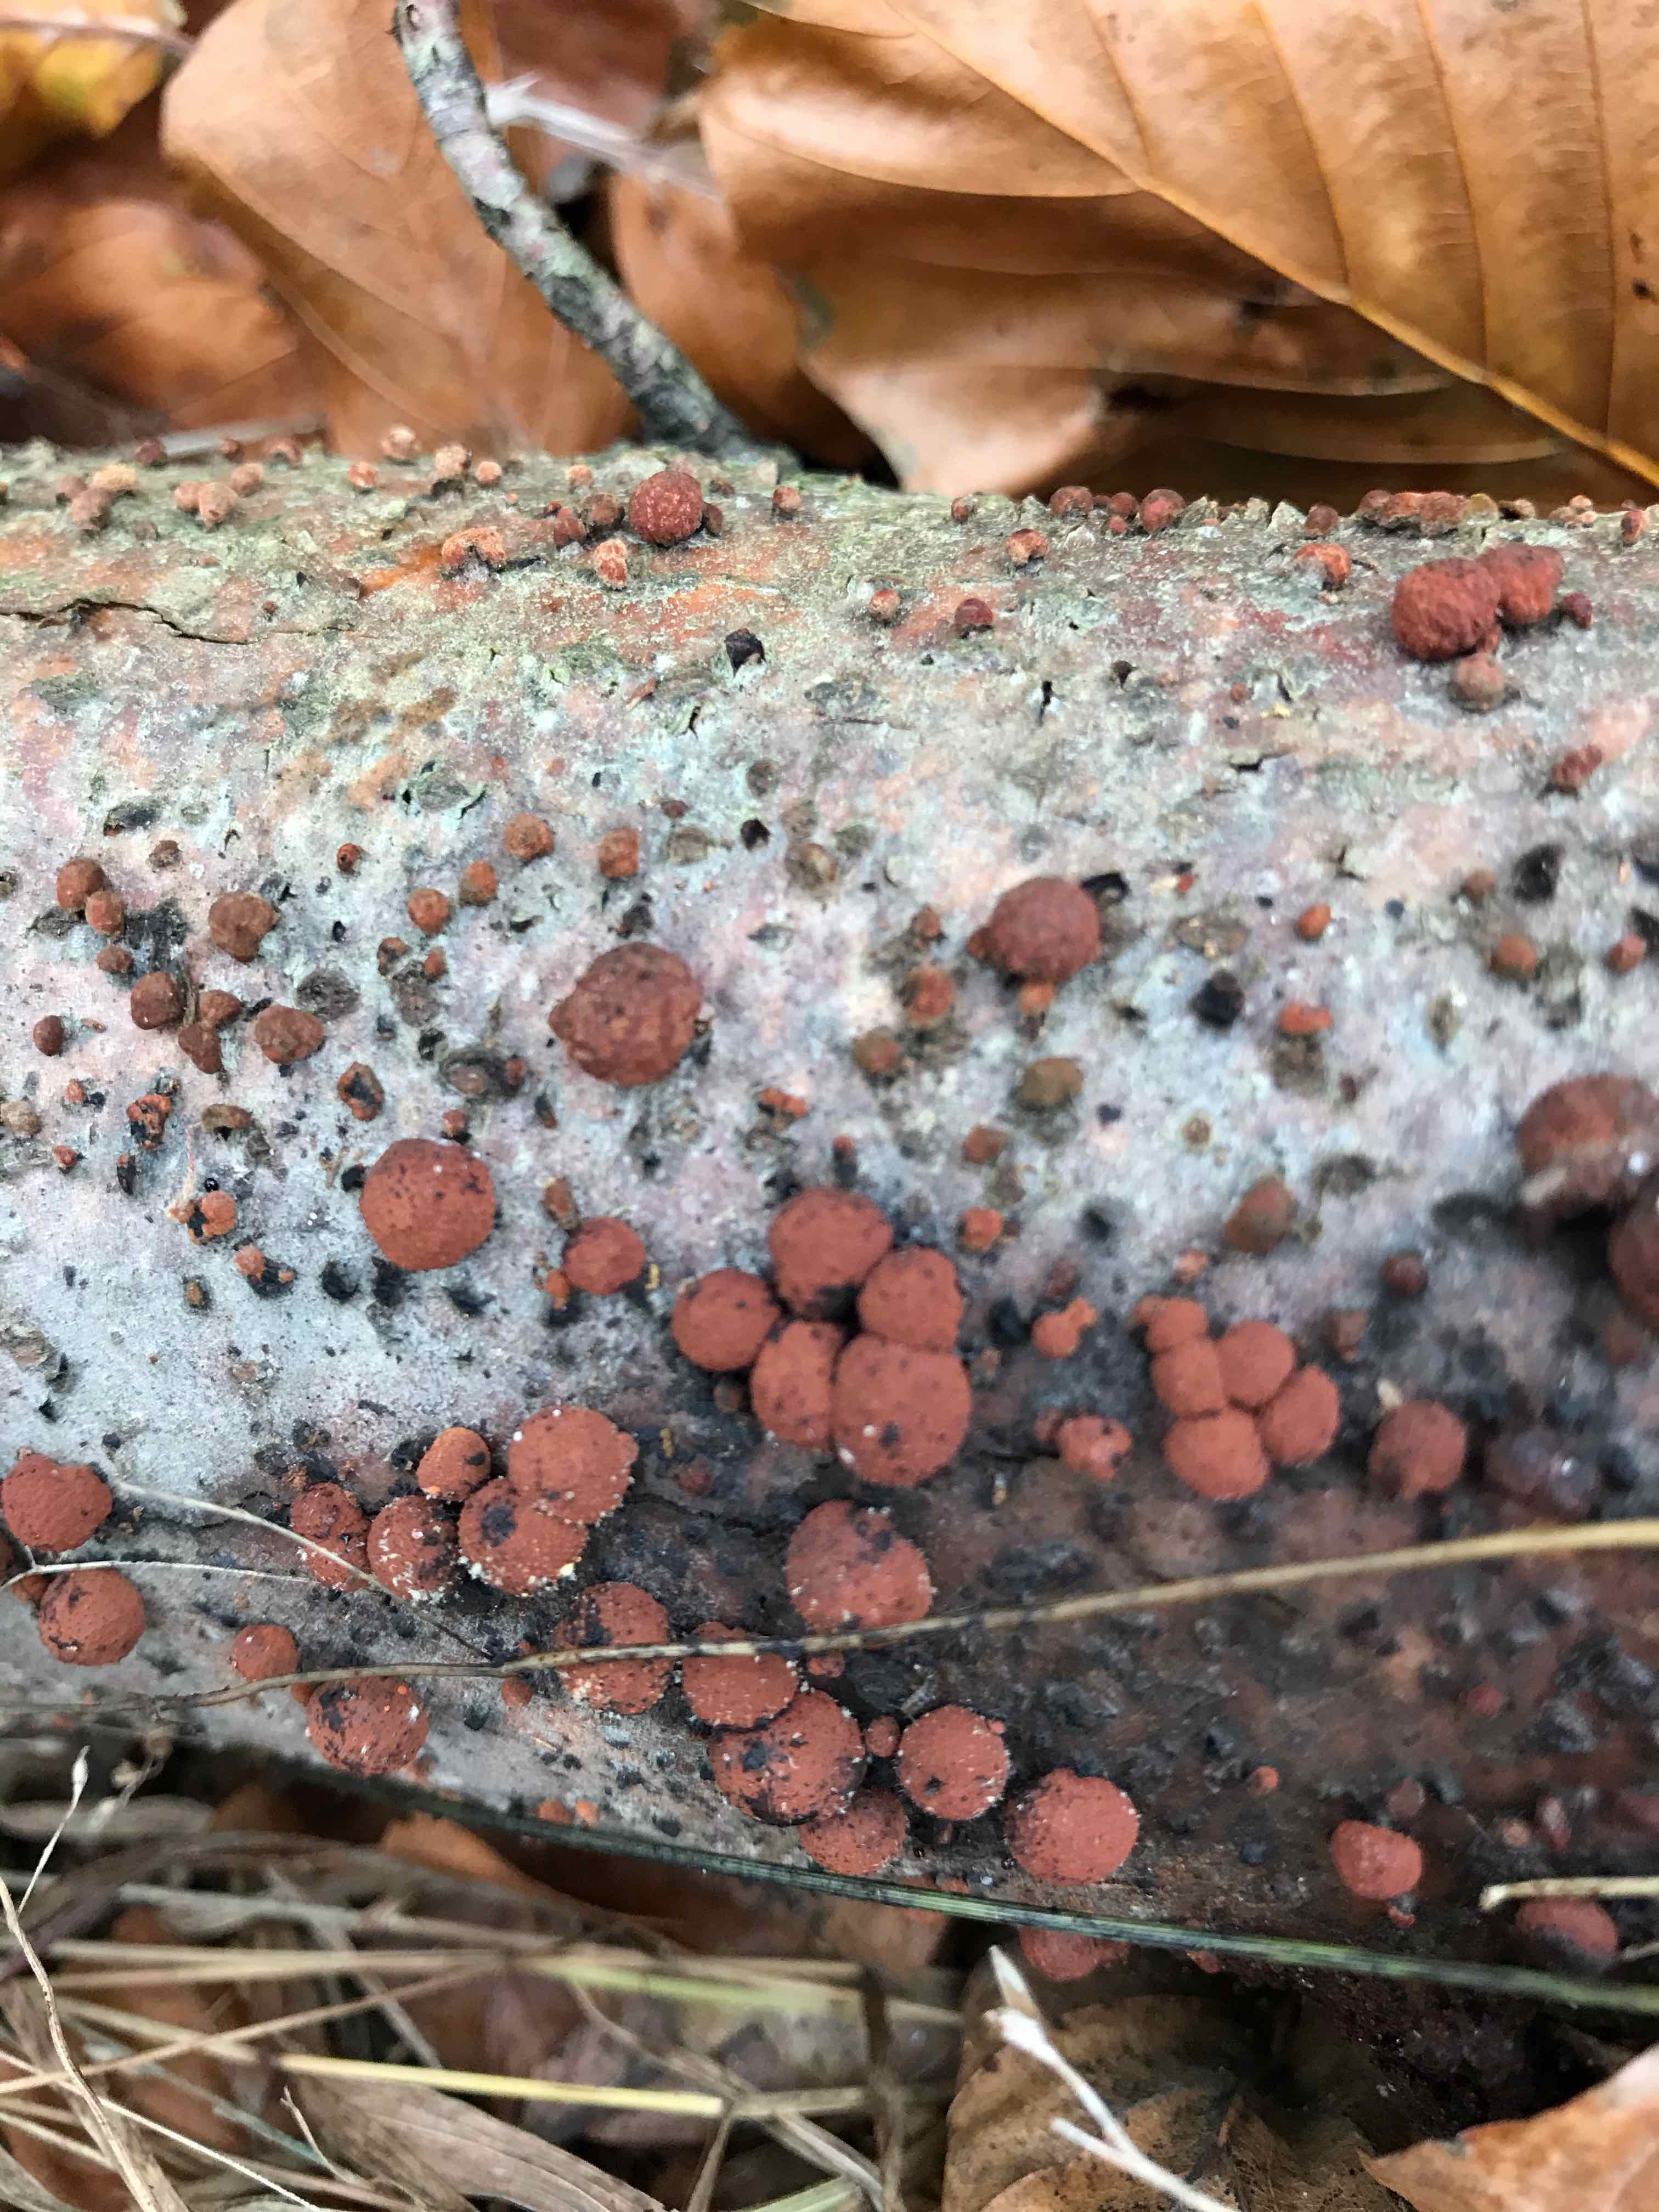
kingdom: Fungi
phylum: Ascomycota
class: Sordariomycetes
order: Xylariales
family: Hypoxylaceae
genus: Hypoxylon
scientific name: Hypoxylon fragiforme
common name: kuljordbær
